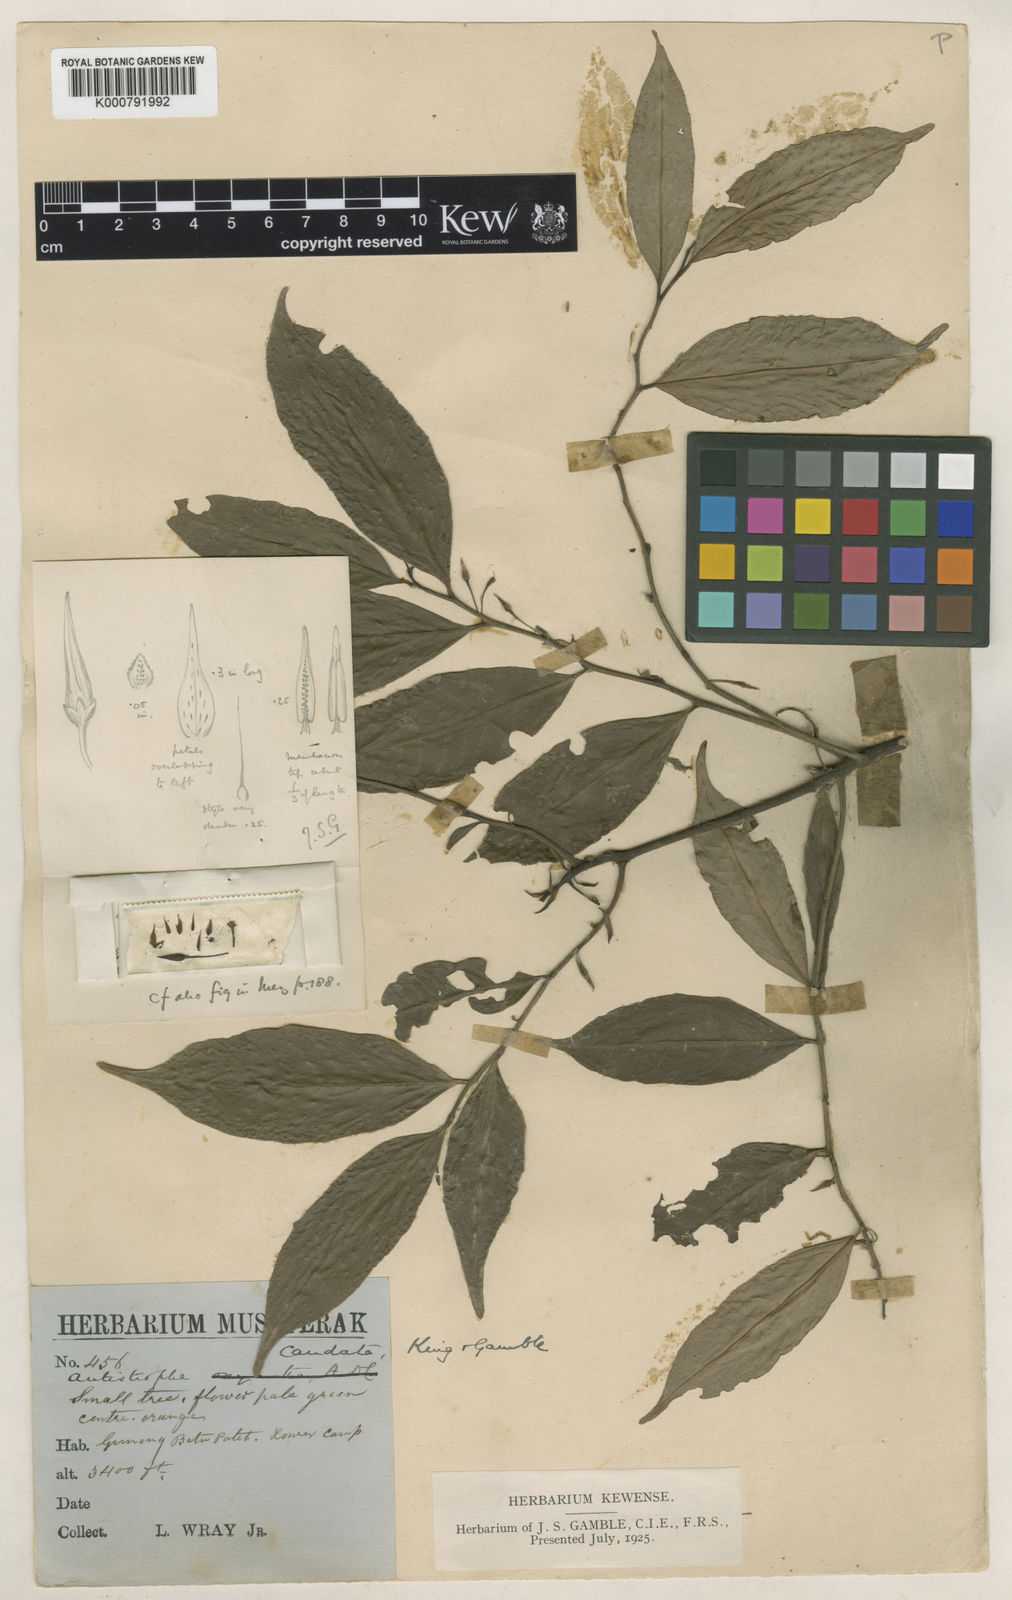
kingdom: Plantae
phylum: Tracheophyta
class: Magnoliopsida
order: Ericales
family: Primulaceae
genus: Antistrophe
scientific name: Antistrophe solanoides
